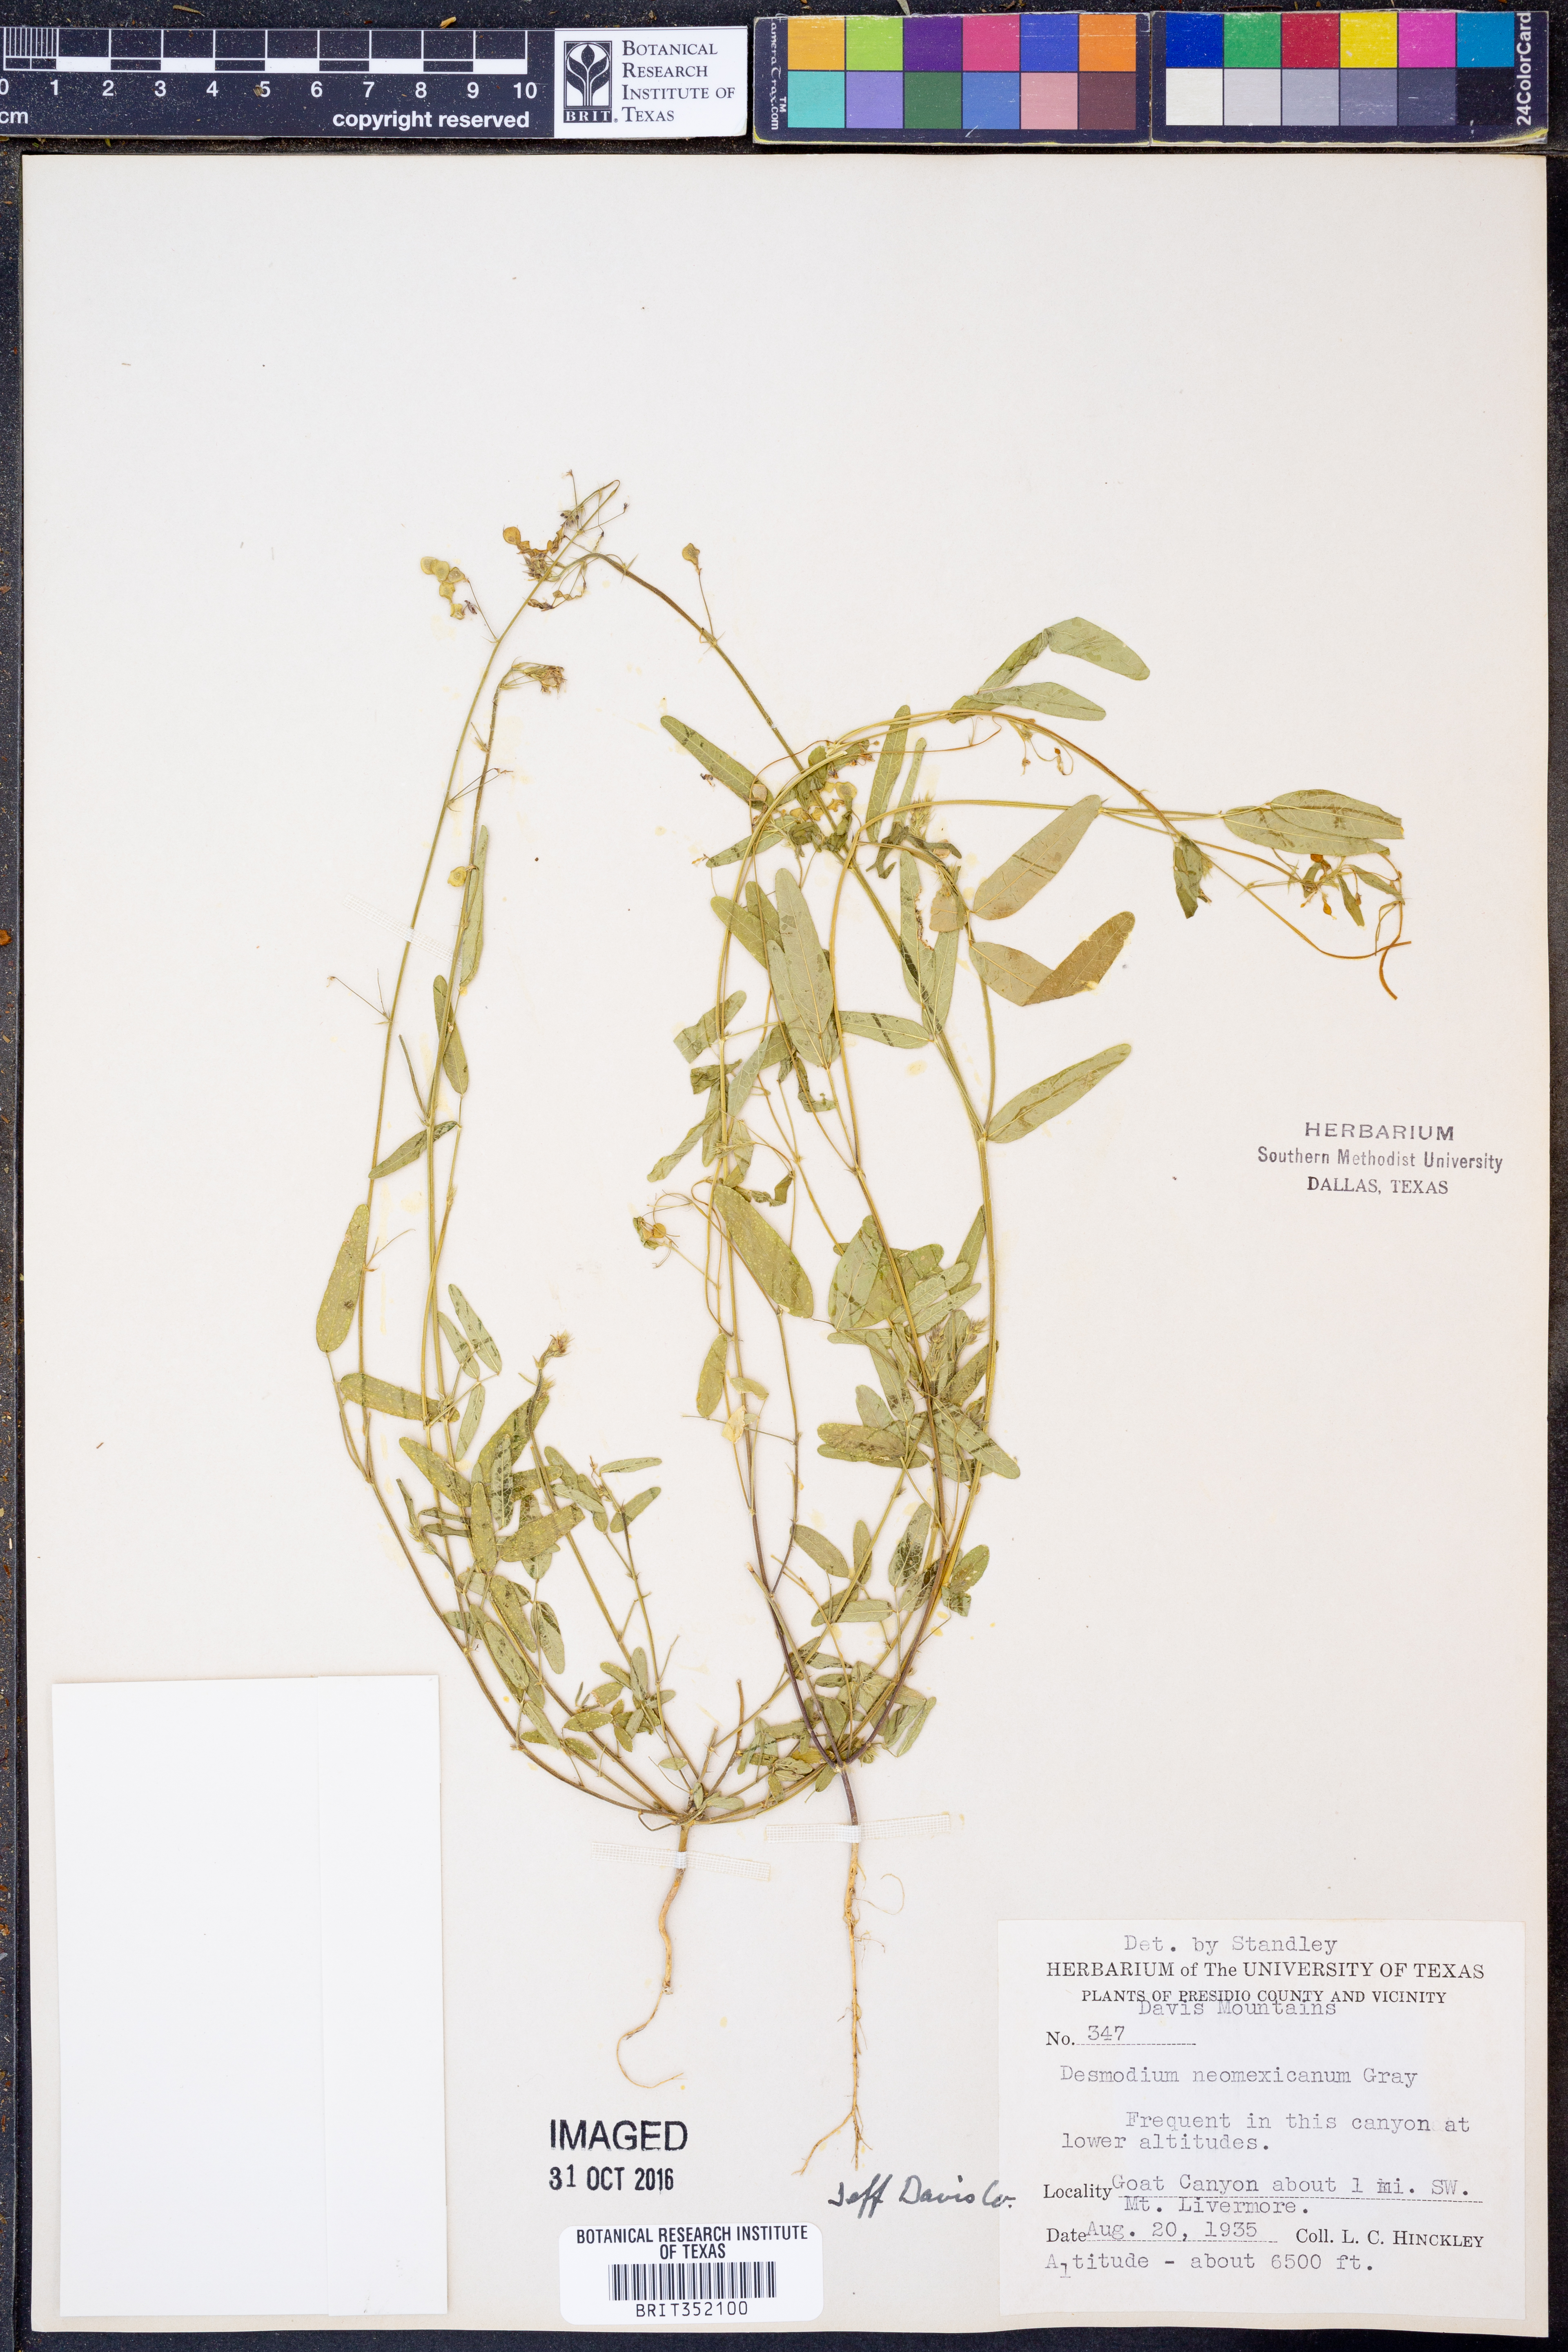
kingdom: Plantae
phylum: Tracheophyta
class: Magnoliopsida
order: Fabales
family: Fabaceae
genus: Desmodium
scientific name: Desmodium procumbens
